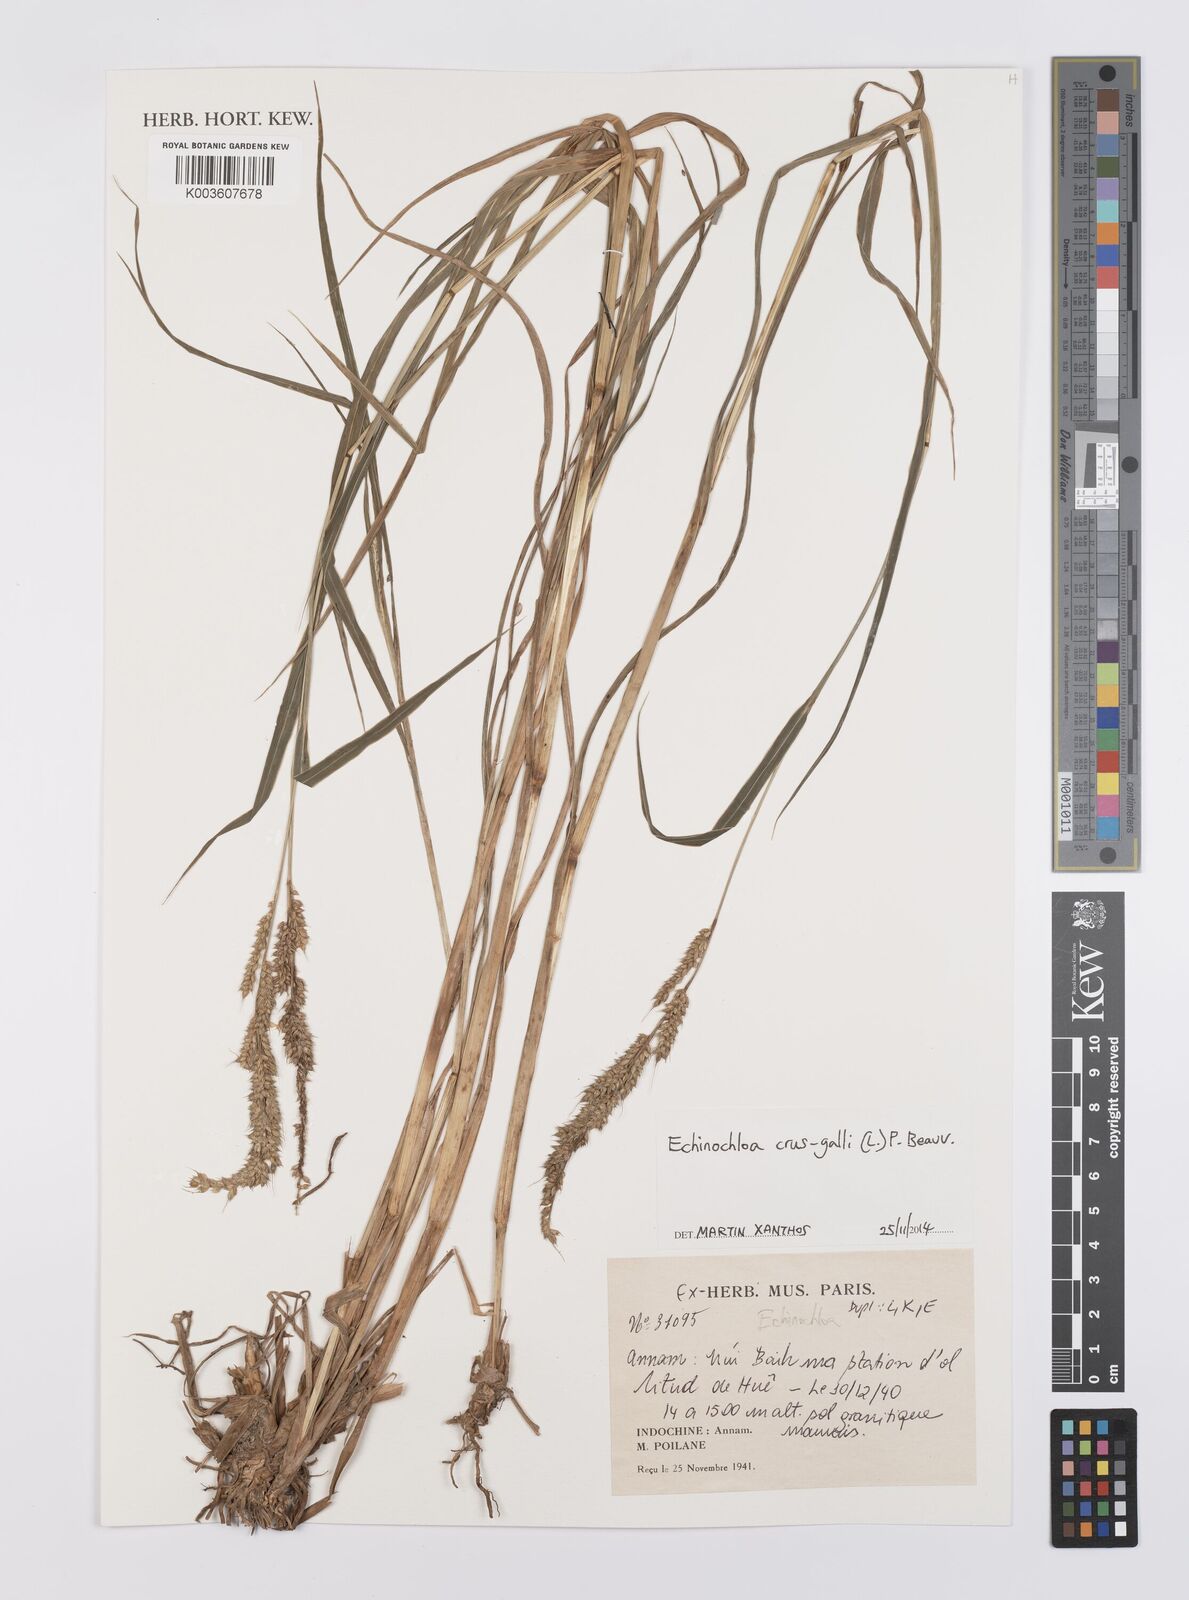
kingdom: Plantae
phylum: Tracheophyta
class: Liliopsida
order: Poales
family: Poaceae
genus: Echinochloa
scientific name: Echinochloa crus-galli
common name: Cockspur
